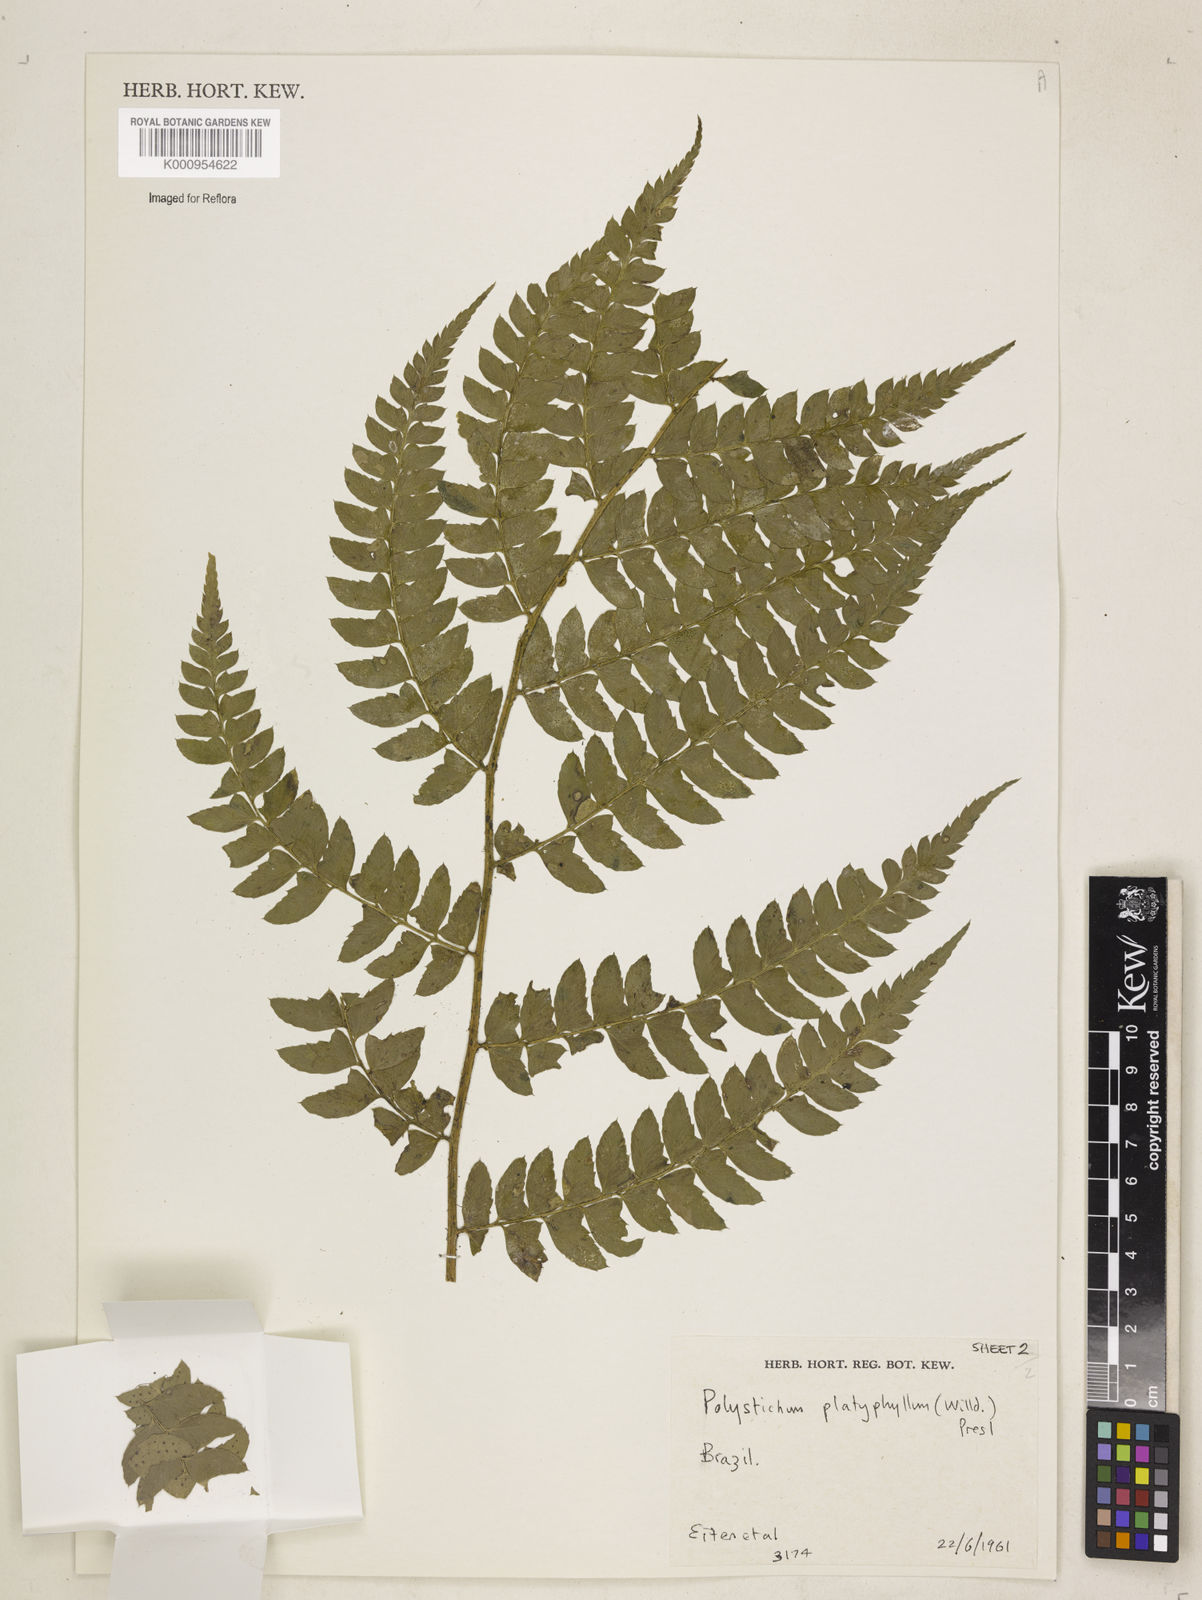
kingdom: Plantae
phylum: Tracheophyta
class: Polypodiopsida
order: Polypodiales
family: Dryopteridaceae
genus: Polystichum
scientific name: Polystichum platyphyllum
